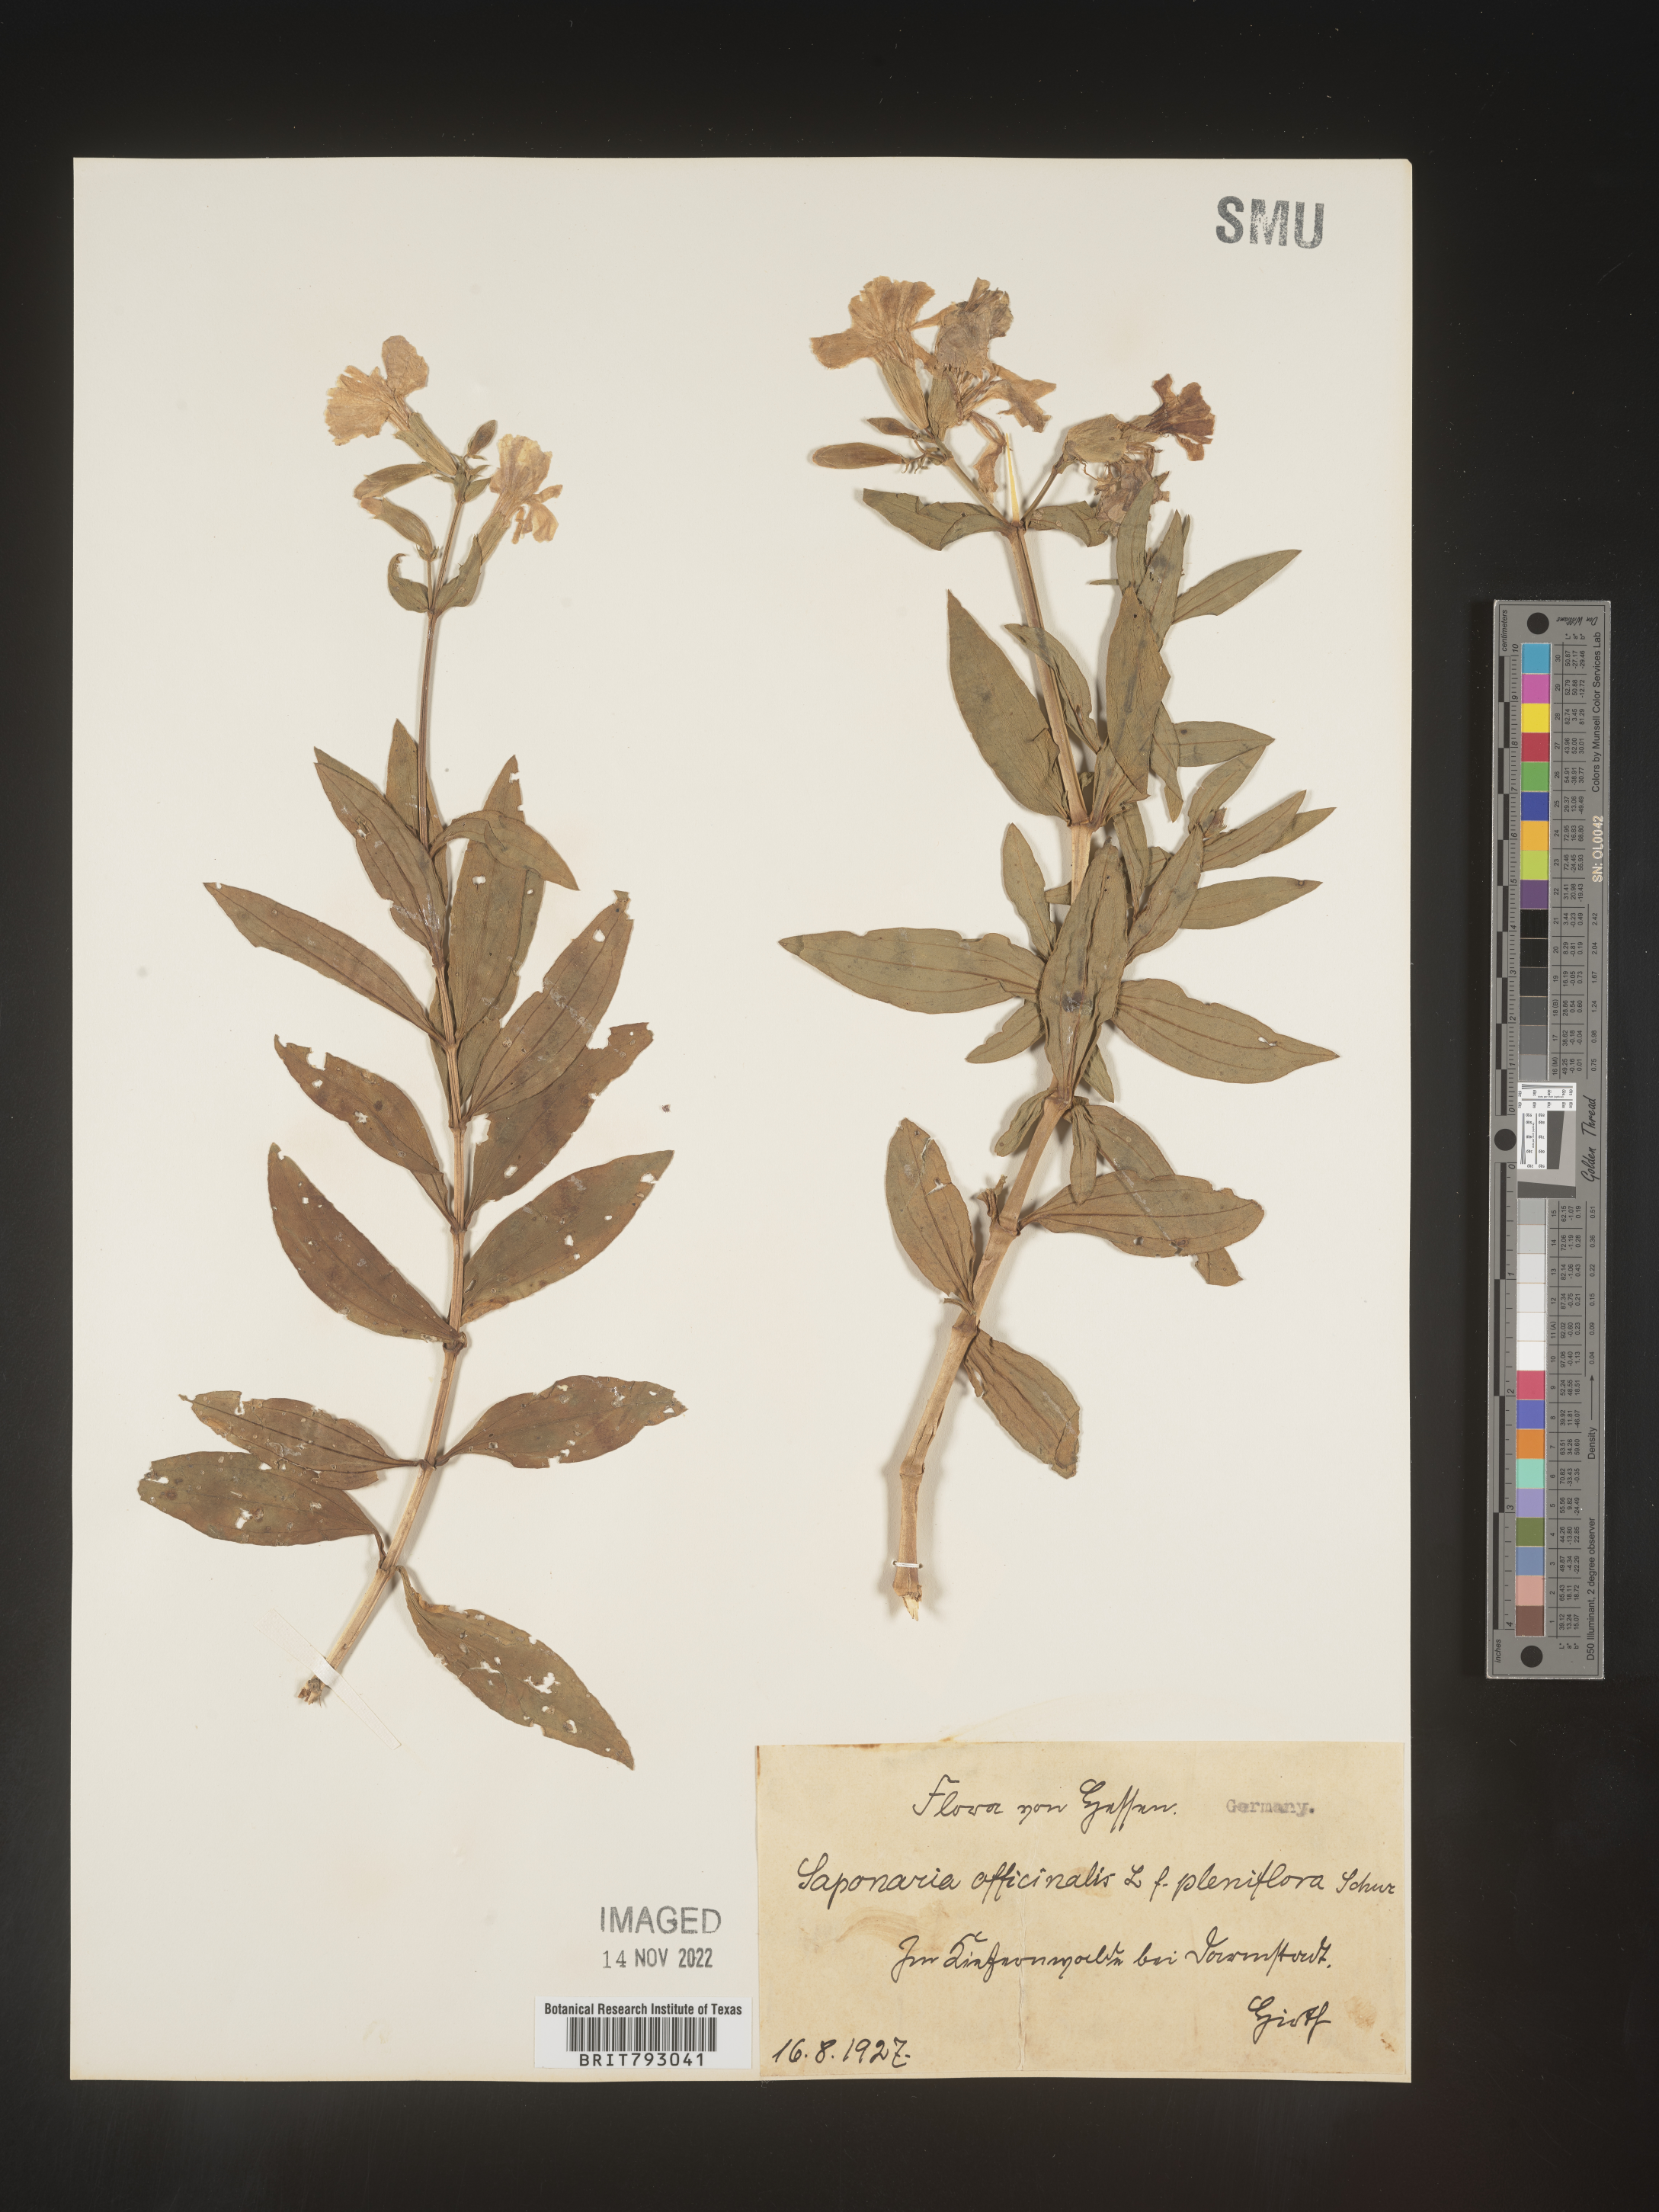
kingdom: Plantae
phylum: Tracheophyta
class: Magnoliopsida
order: Caryophyllales
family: Caryophyllaceae
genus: Saponaria
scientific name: Saponaria
